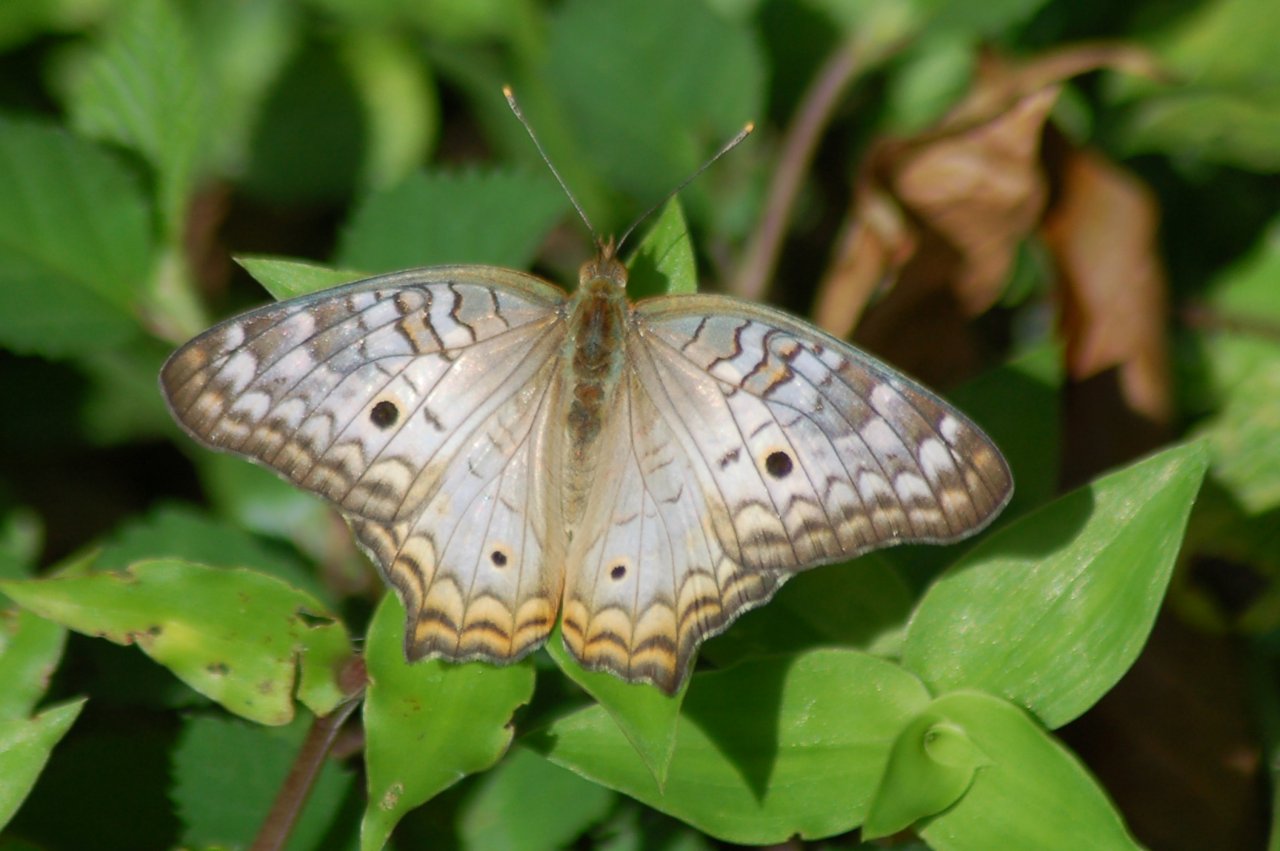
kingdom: Animalia
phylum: Arthropoda
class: Insecta
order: Lepidoptera
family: Nymphalidae
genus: Anartia
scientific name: Anartia jatrophae
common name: White Peacock
